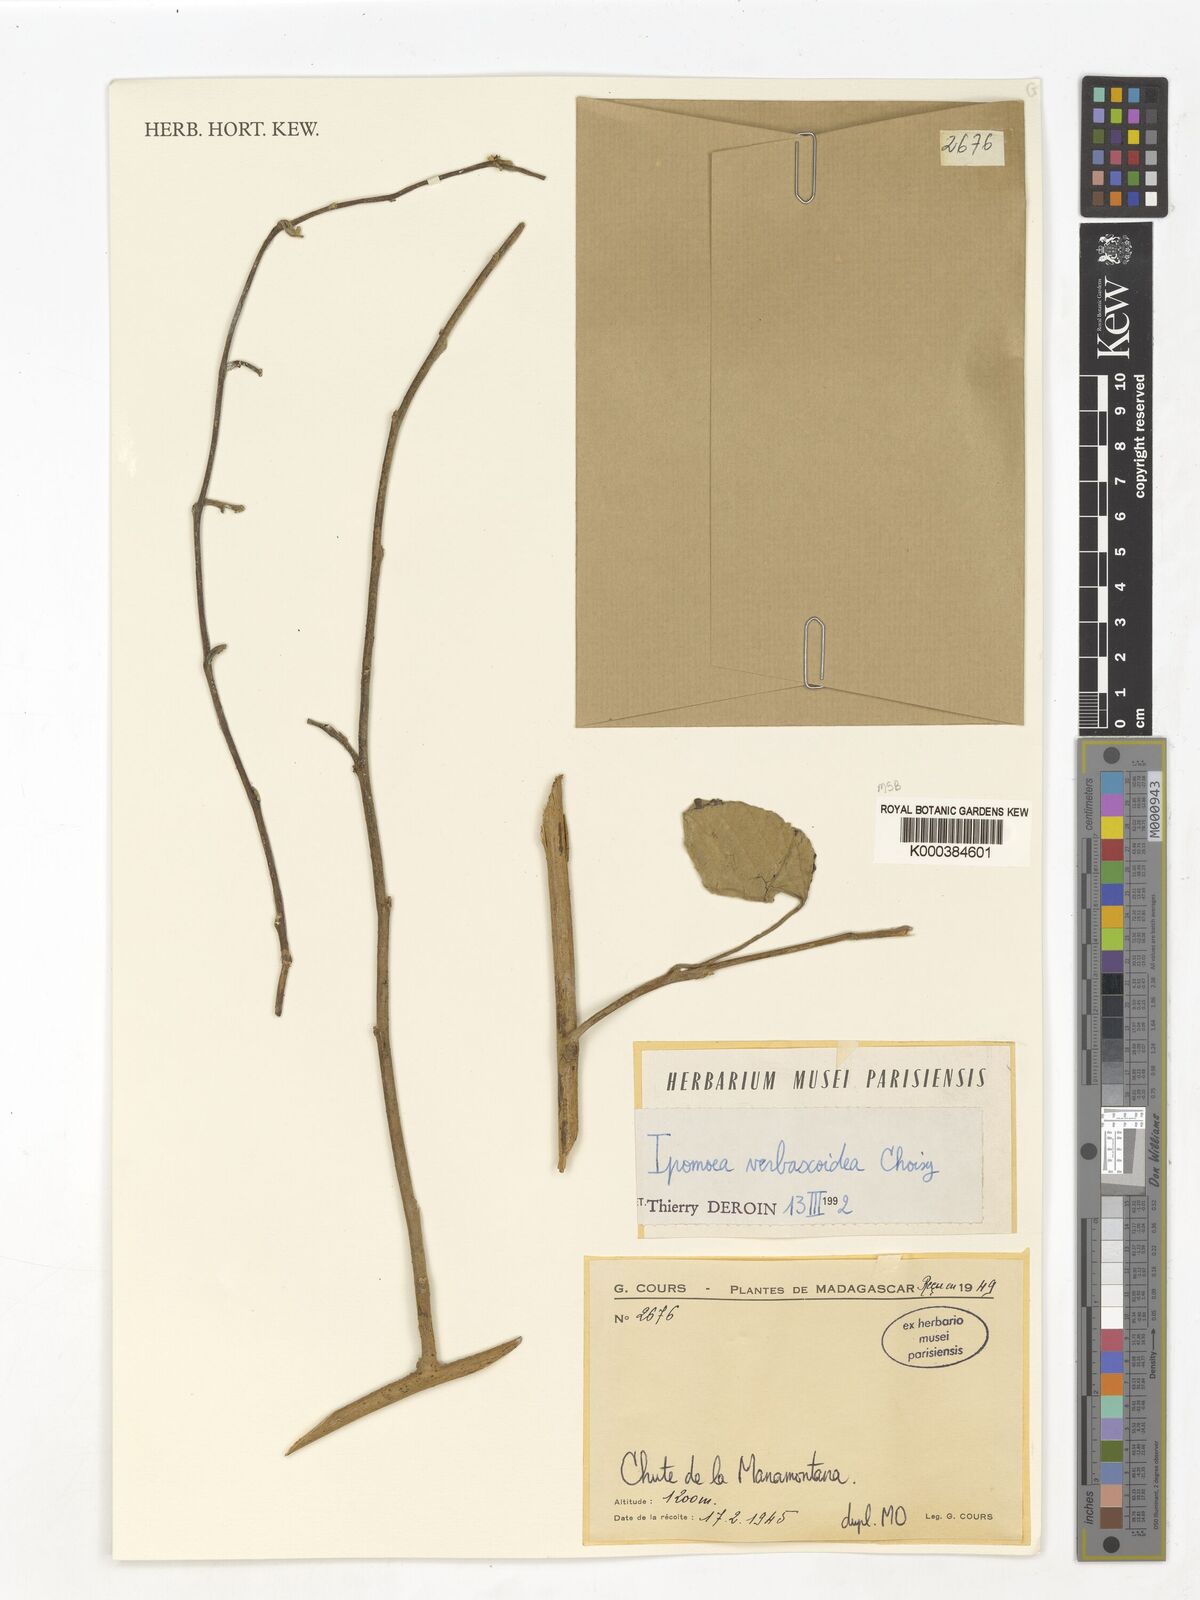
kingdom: Plantae
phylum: Tracheophyta
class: Magnoliopsida
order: Solanales
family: Convolvulaceae
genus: Ipomoea
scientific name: Ipomoea verbascoidea
